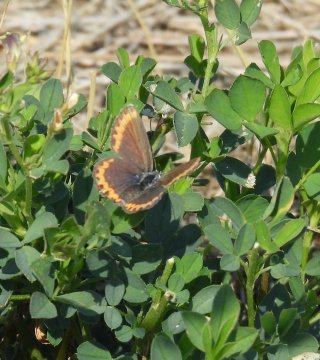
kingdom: Animalia
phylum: Arthropoda
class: Insecta
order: Lepidoptera
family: Lycaenidae
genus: Lycaeides
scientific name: Lycaeides melissa
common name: Melissa Blue
